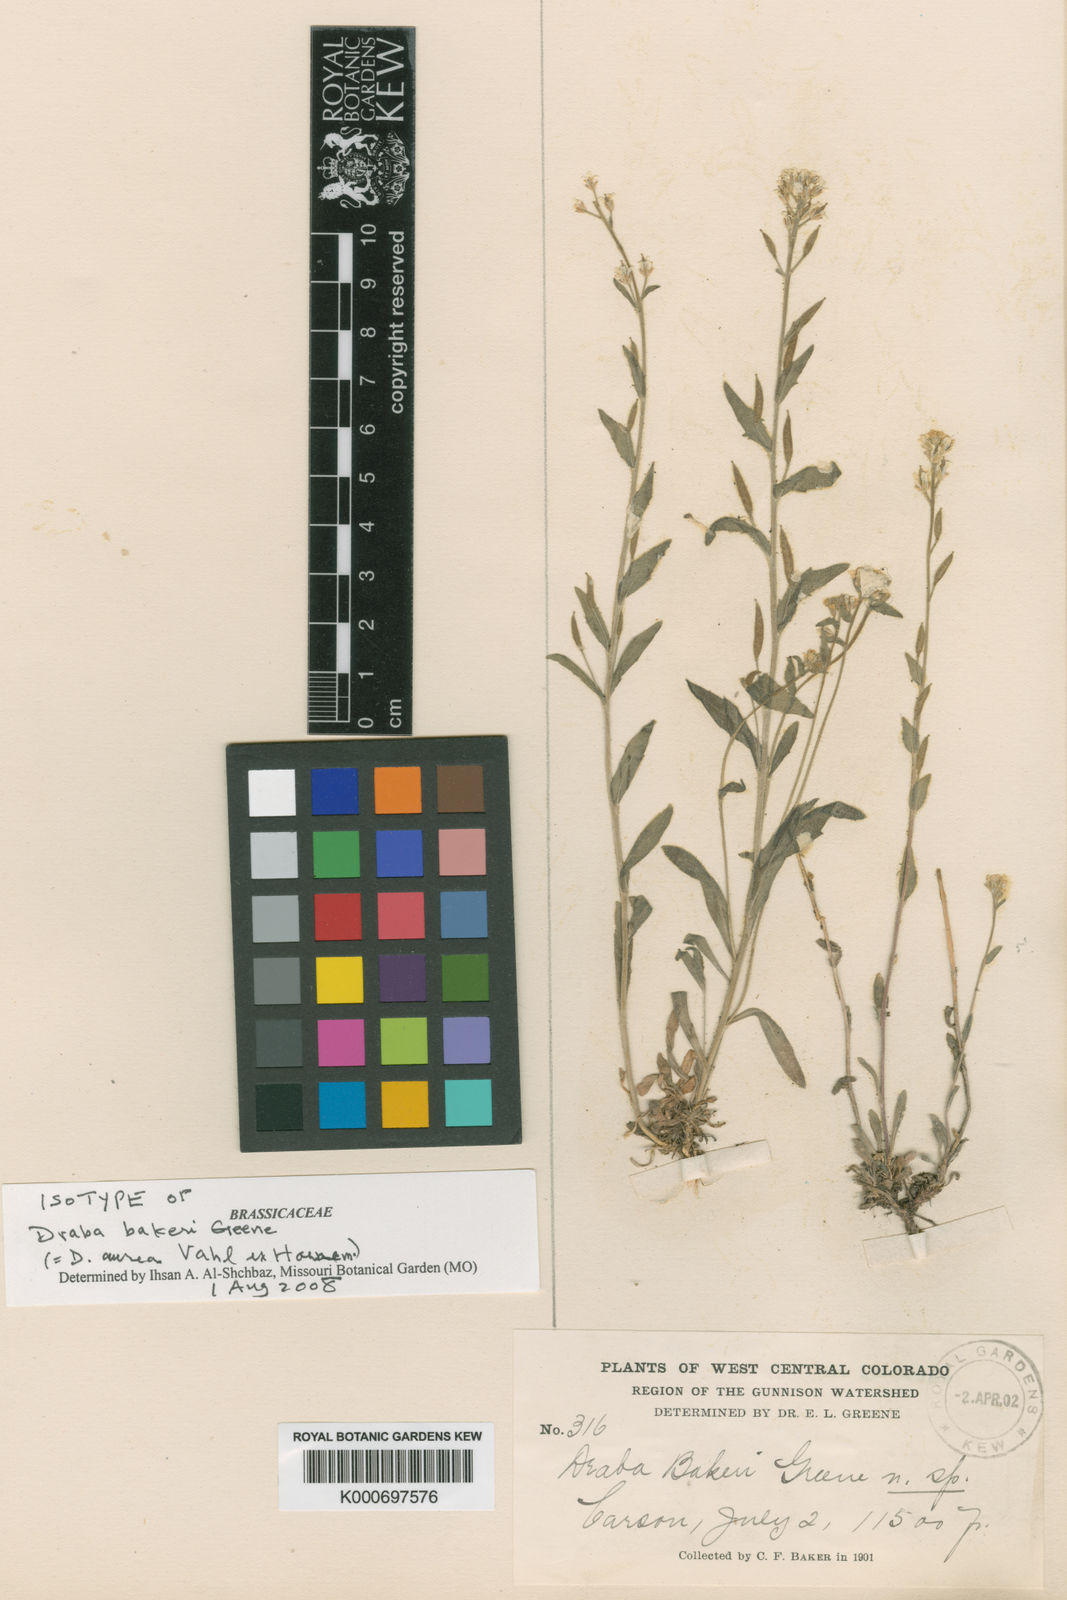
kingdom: Plantae
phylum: Tracheophyta
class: Magnoliopsida
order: Brassicales
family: Brassicaceae
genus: Draba
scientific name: Draba aurea
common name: Golden draba
